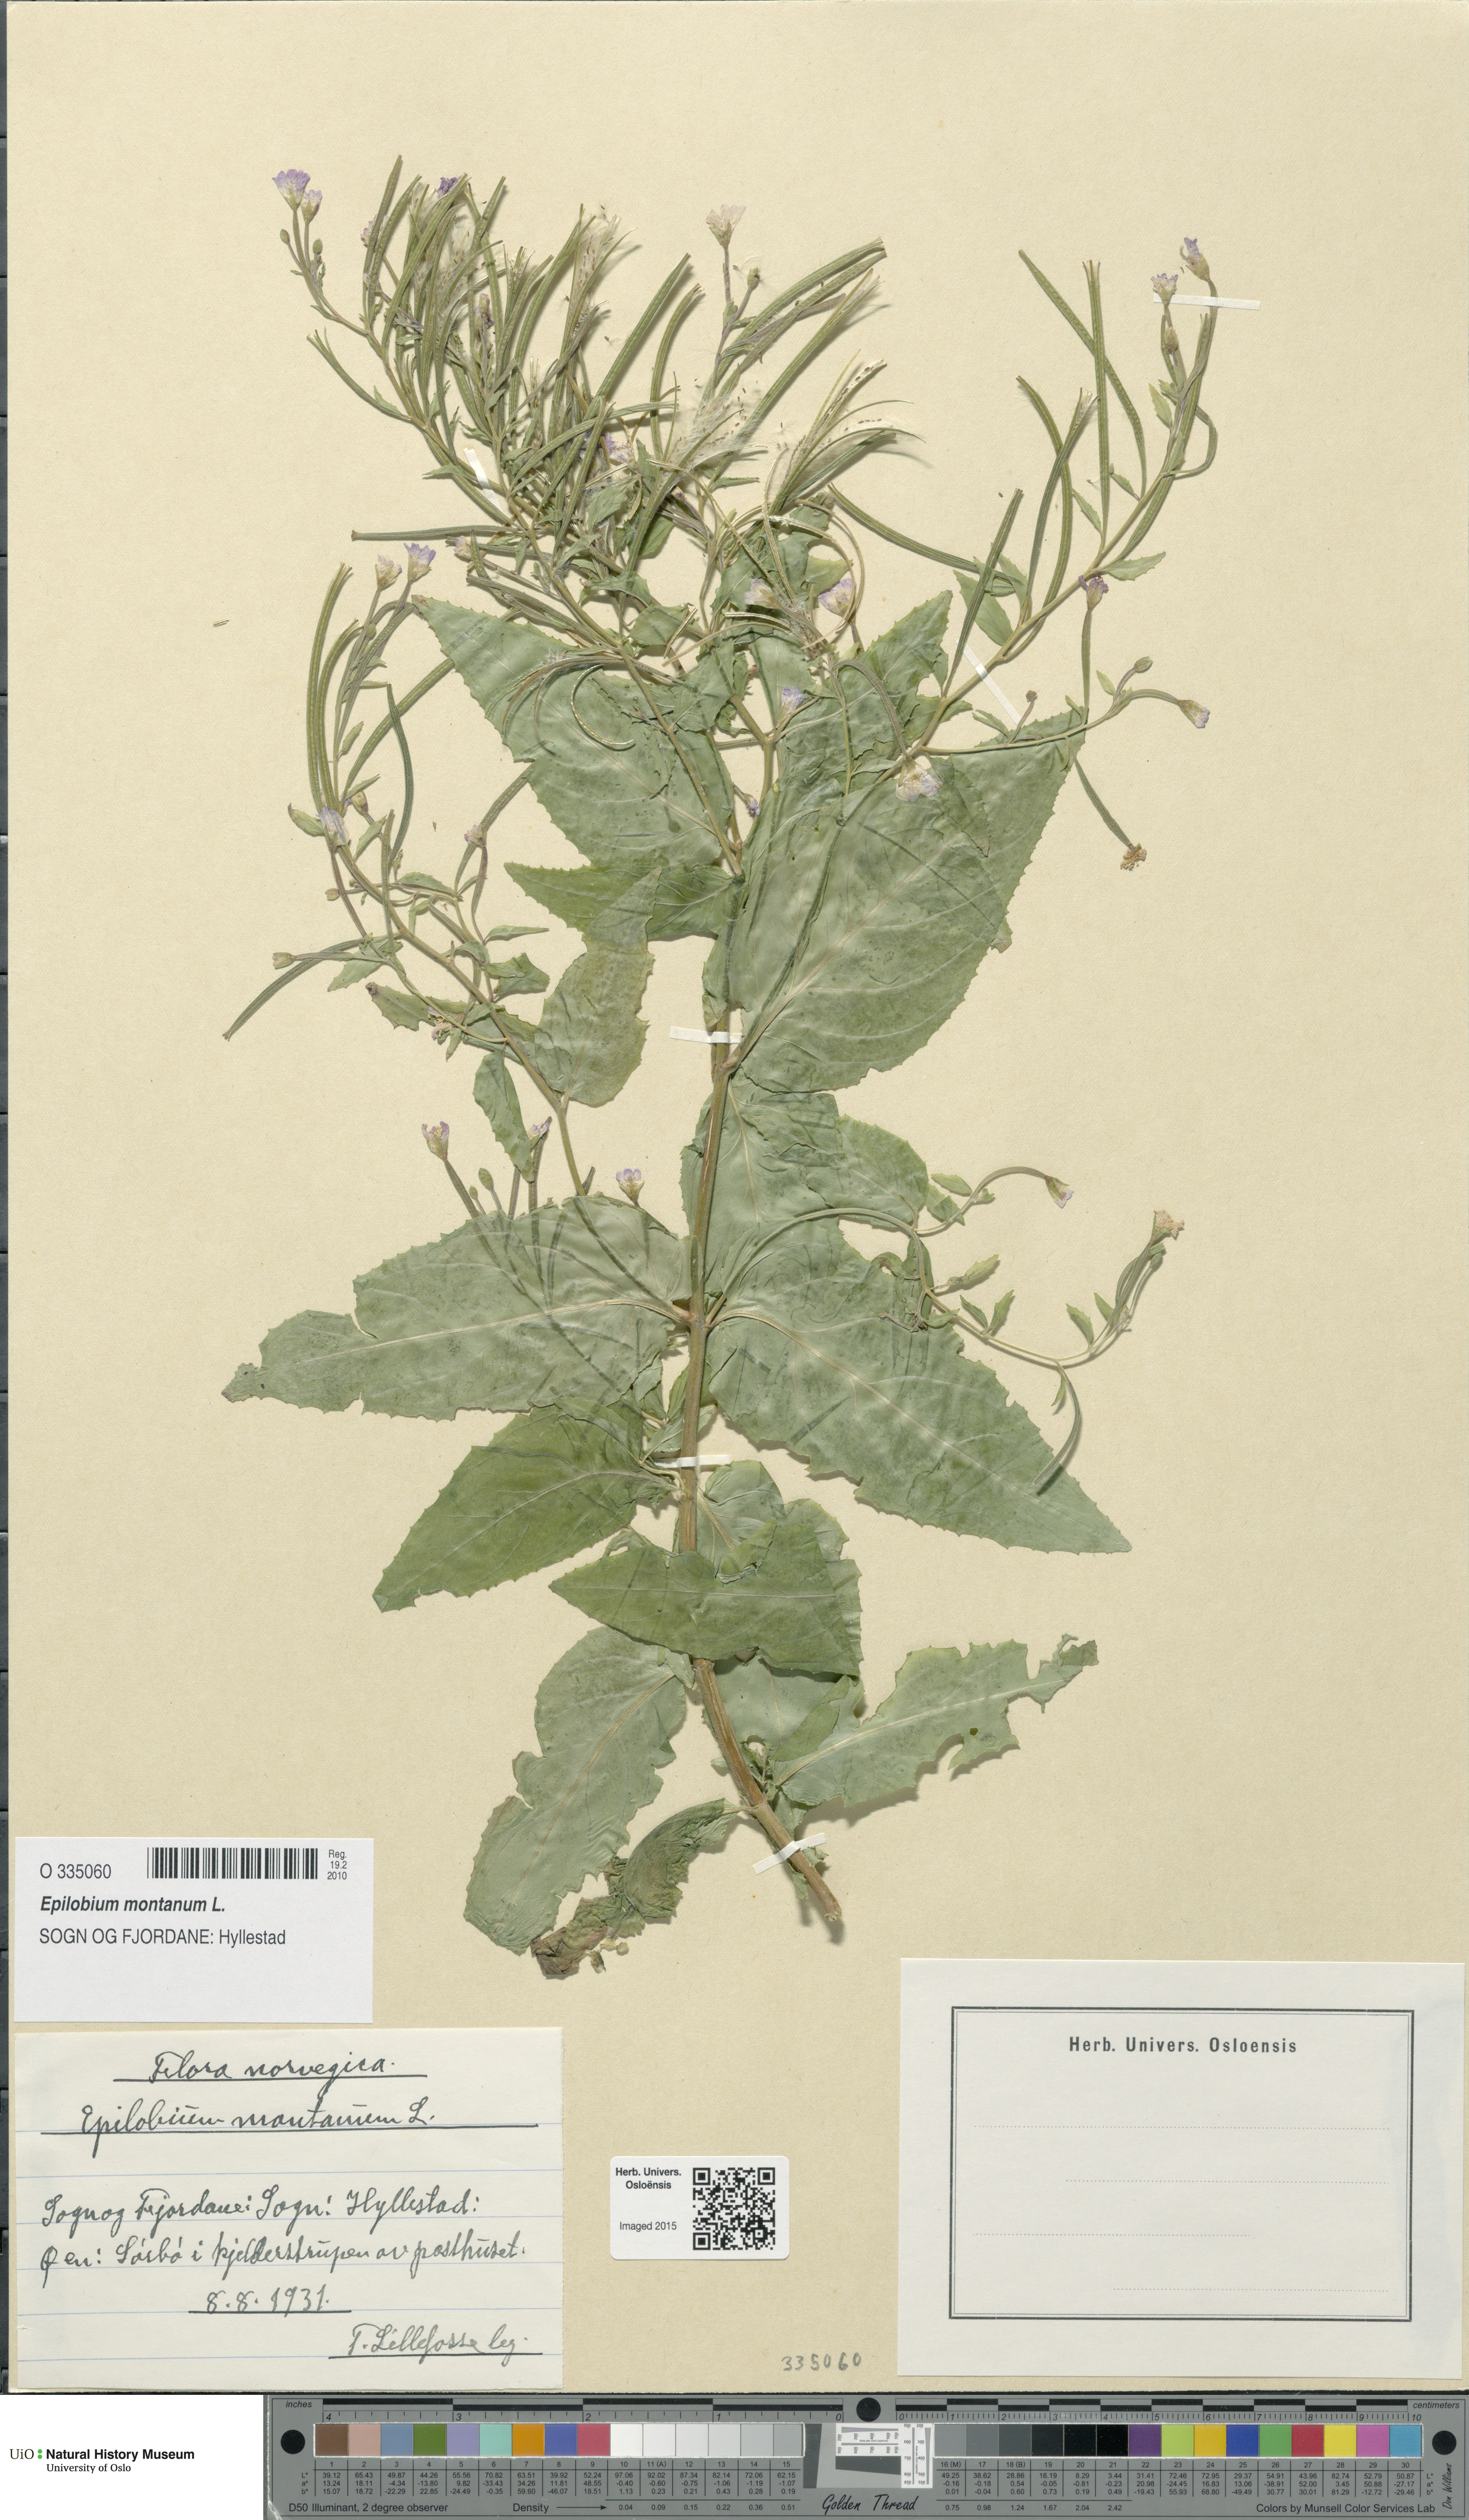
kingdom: Plantae
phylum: Tracheophyta
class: Magnoliopsida
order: Myrtales
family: Onagraceae
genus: Epilobium
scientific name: Epilobium montanum
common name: Broad-leaved willowherb
